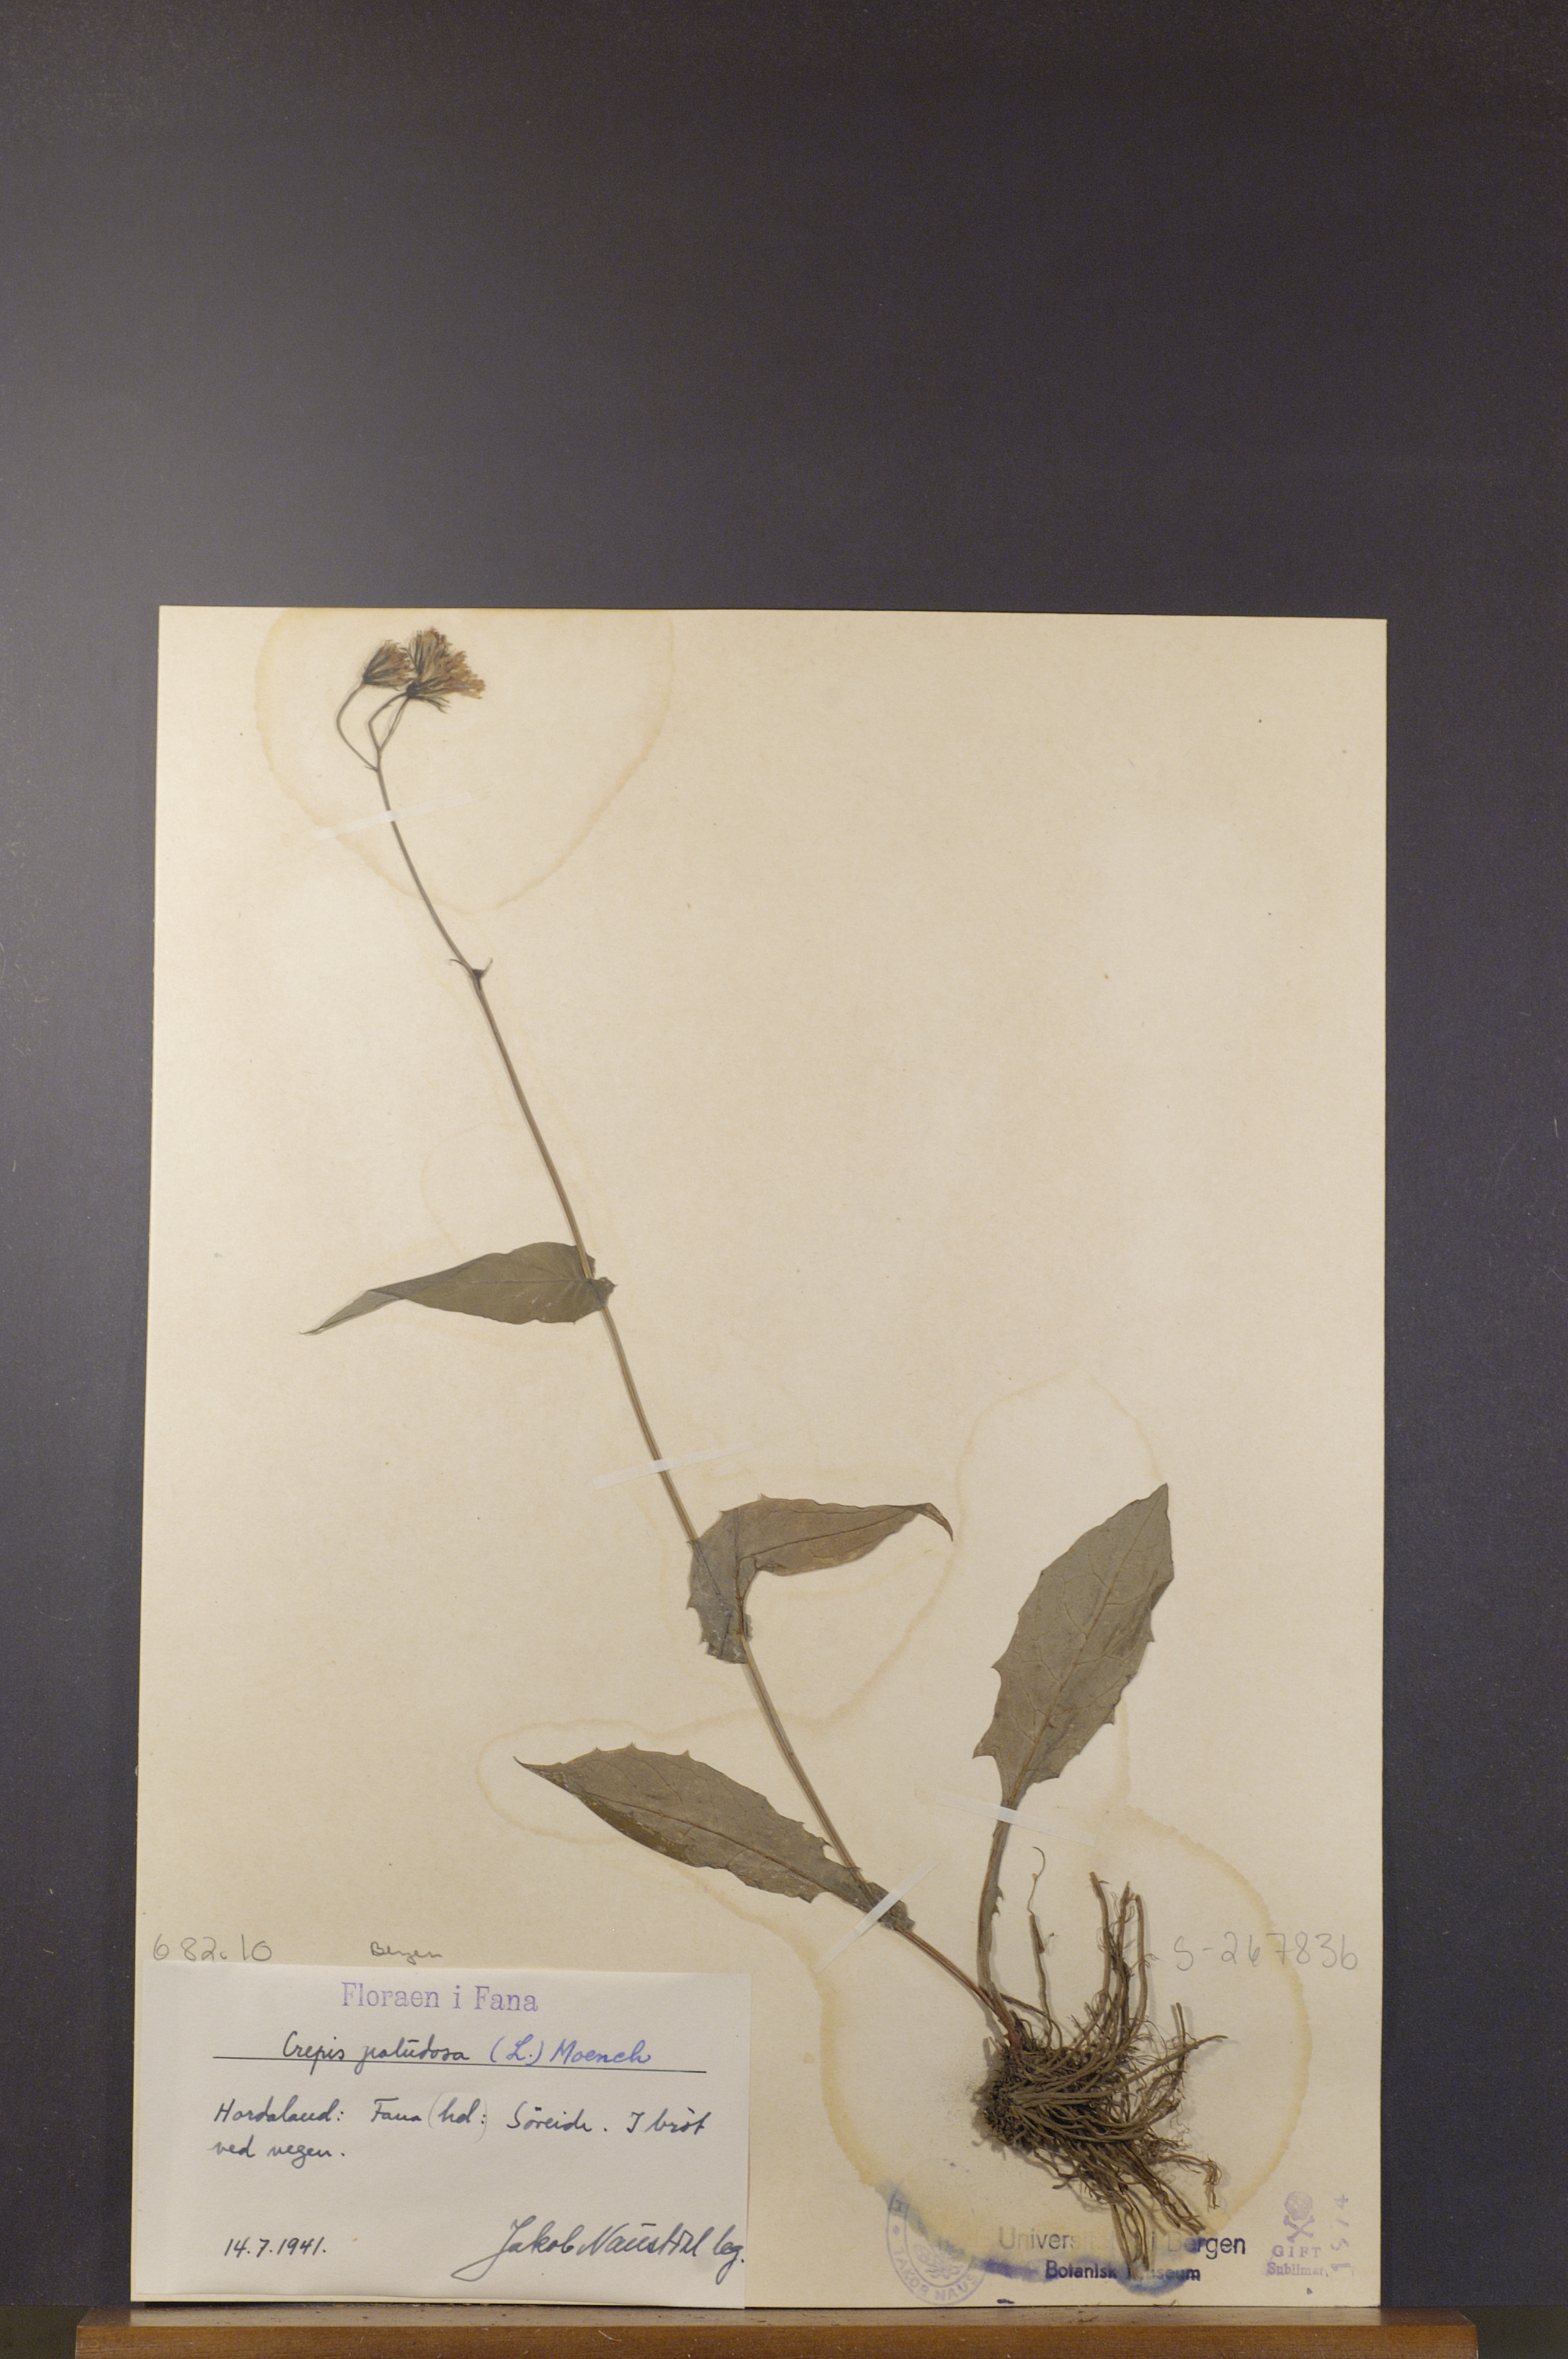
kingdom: Plantae
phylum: Tracheophyta
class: Magnoliopsida
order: Asterales
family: Asteraceae
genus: Crepis
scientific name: Crepis paludosa
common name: Marsh hawk's-beard
